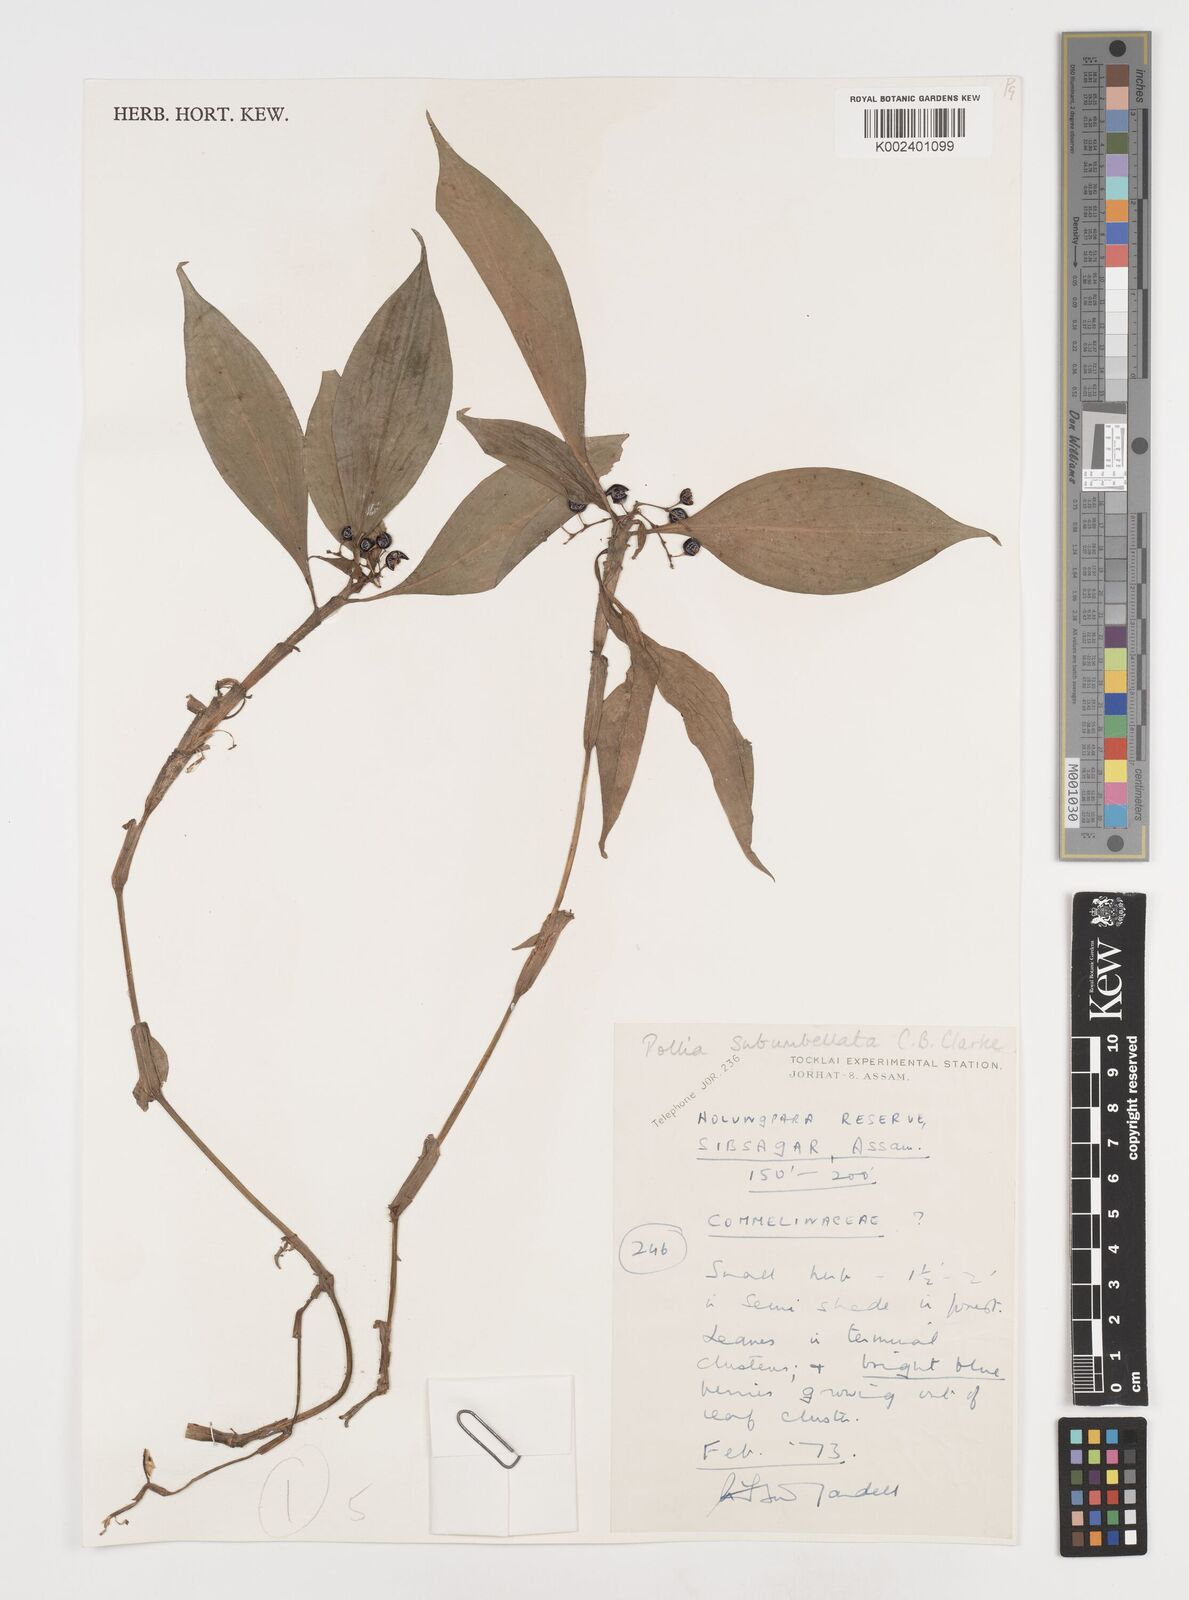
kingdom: Plantae
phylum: Tracheophyta
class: Liliopsida
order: Commelinales
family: Commelinaceae
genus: Pollia
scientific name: Pollia subumbellata
